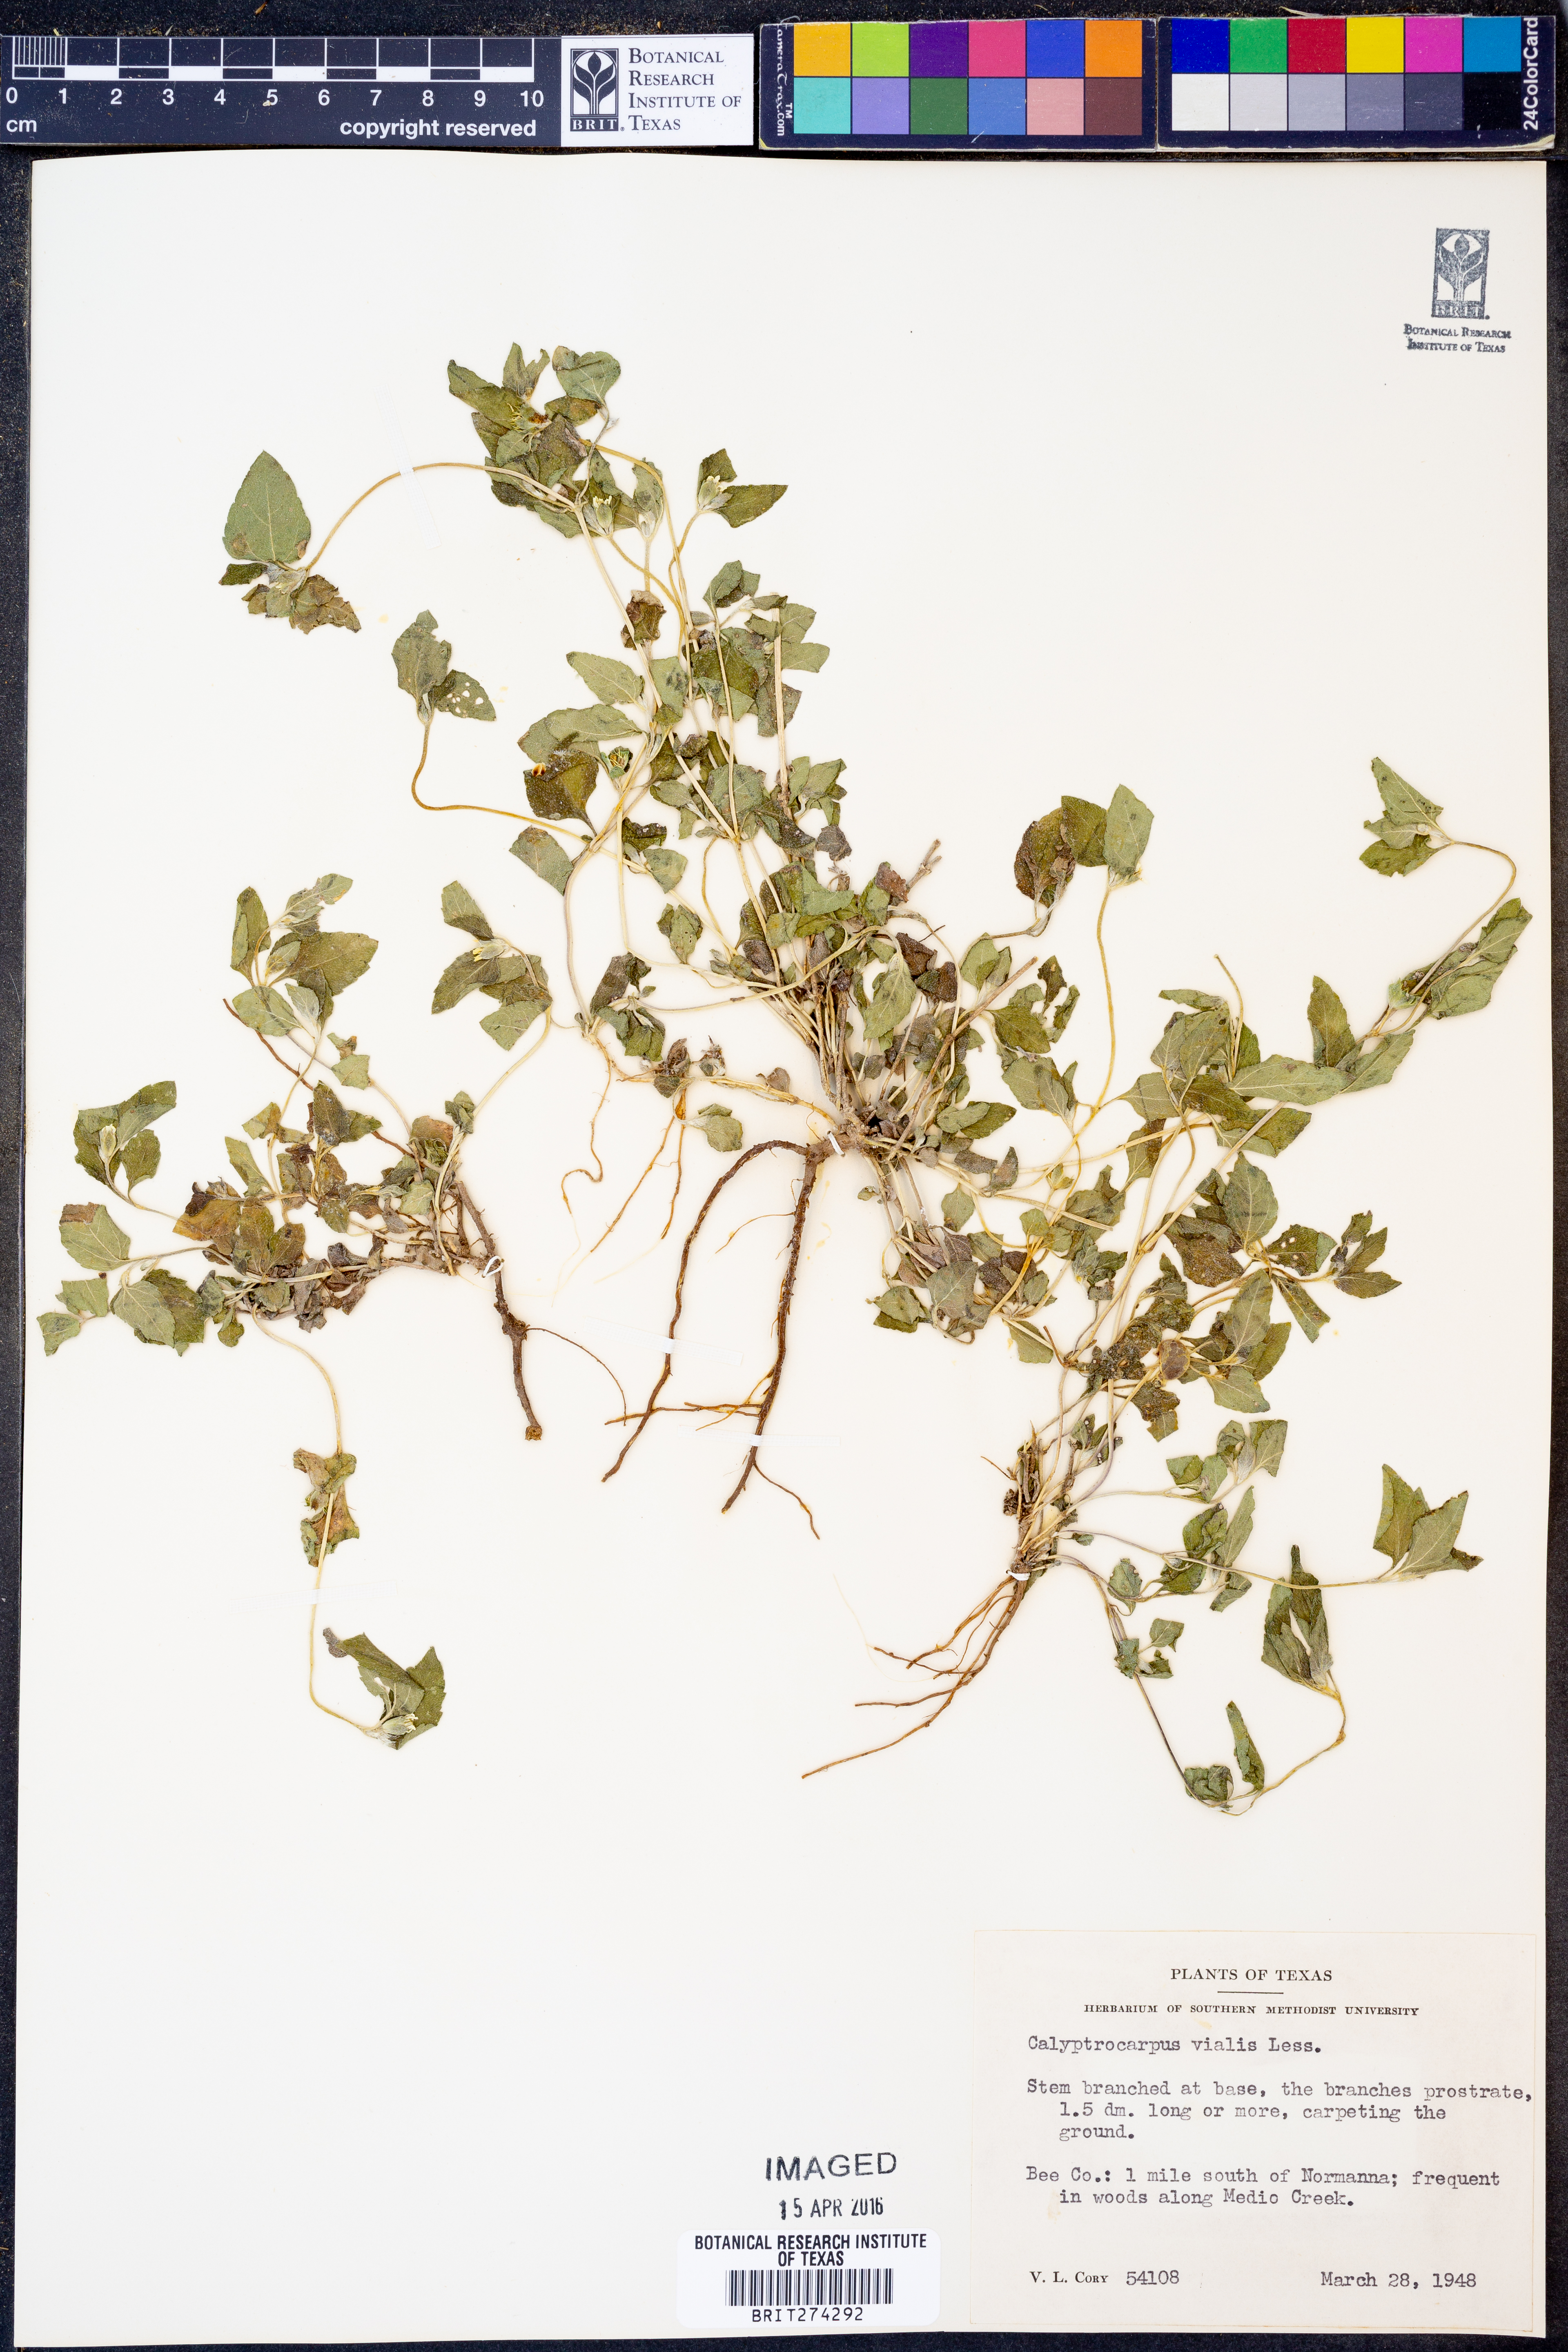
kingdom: Plantae
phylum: Tracheophyta
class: Magnoliopsida
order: Asterales
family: Asteraceae
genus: Calyptocarpus
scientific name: Calyptocarpus vialis
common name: Straggler daisy
